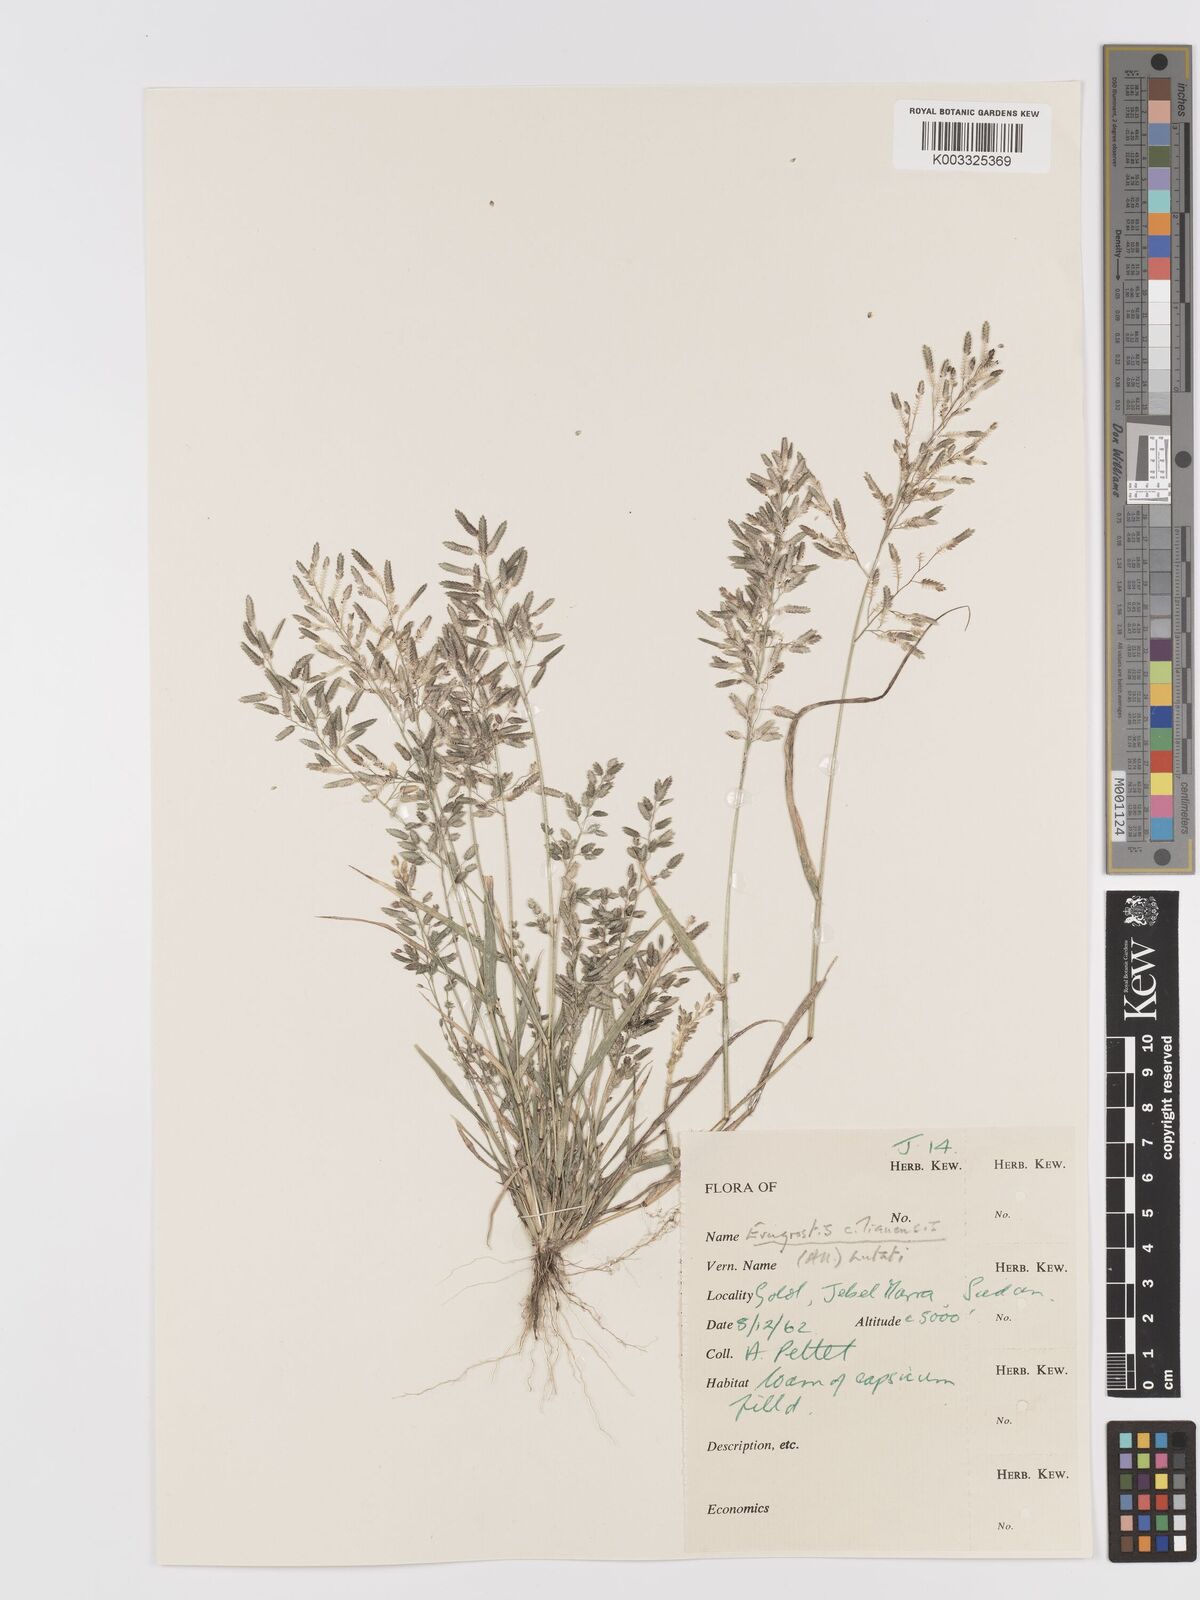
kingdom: Plantae
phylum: Tracheophyta
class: Liliopsida
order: Poales
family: Poaceae
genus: Eragrostis
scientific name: Eragrostis cilianensis
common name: Stinkgrass
